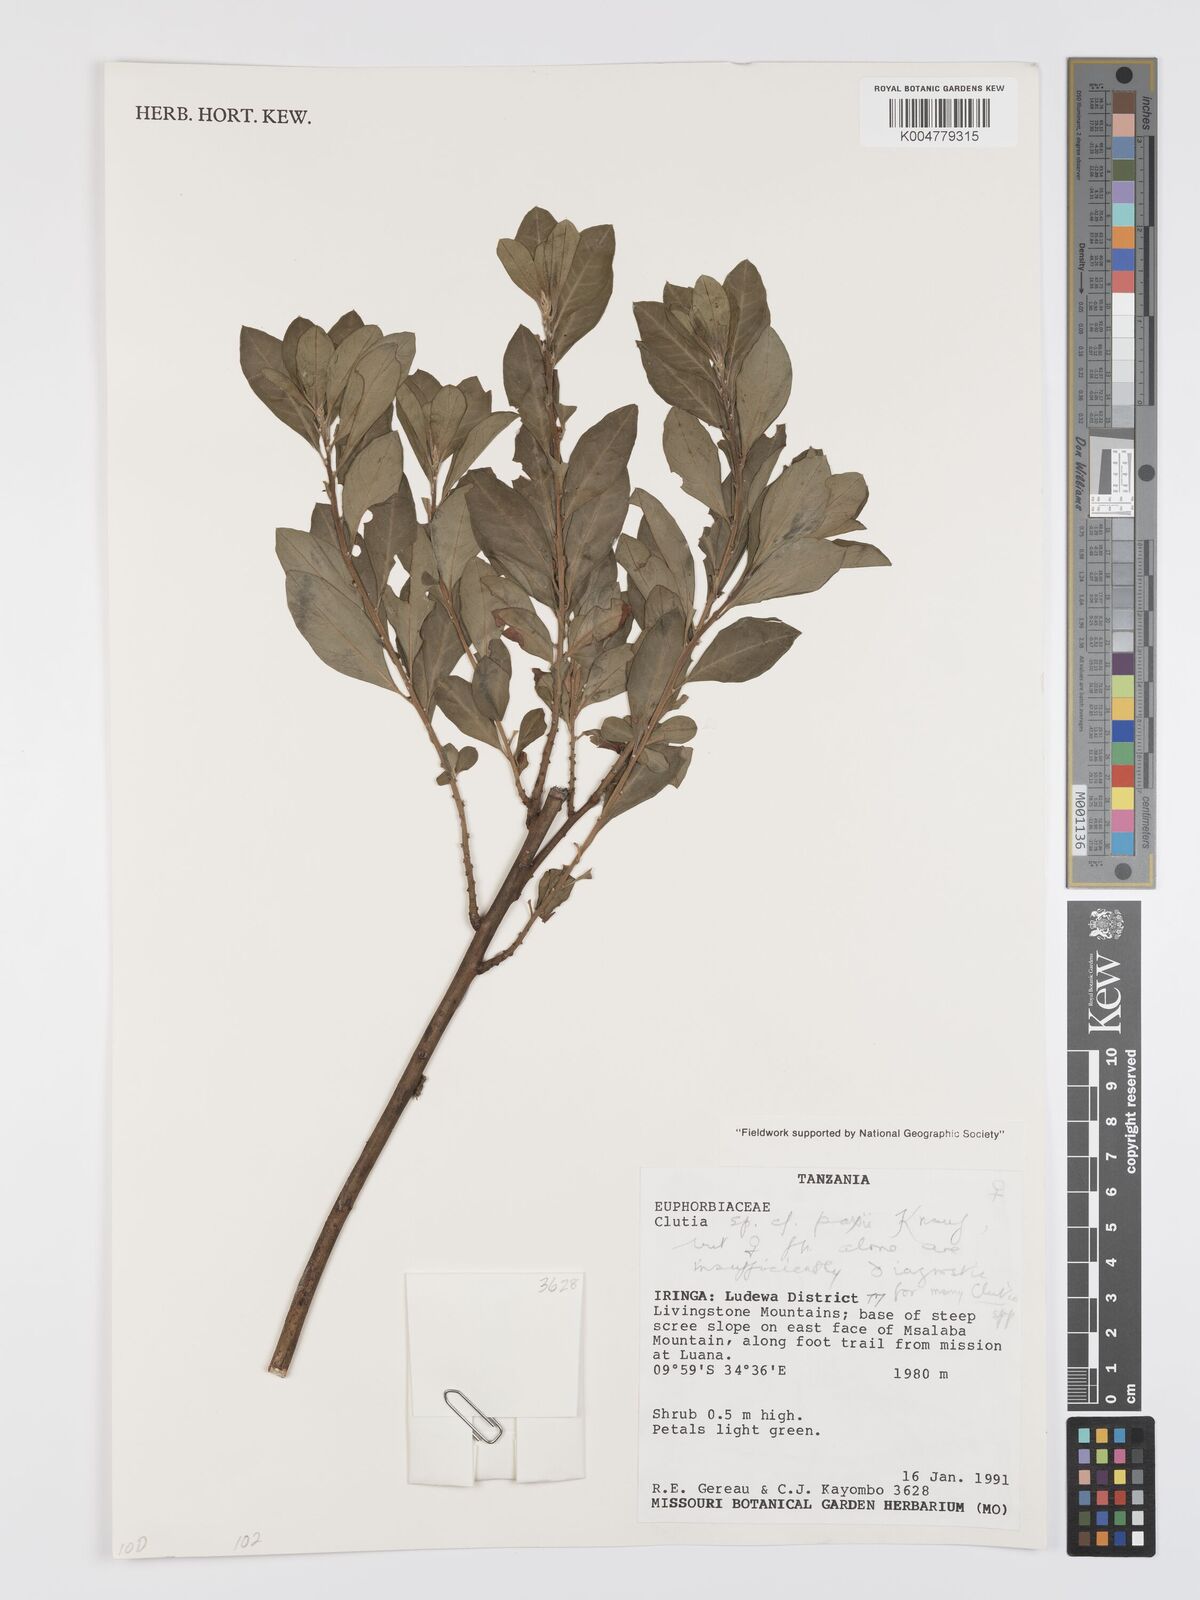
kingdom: Plantae
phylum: Tracheophyta
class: Magnoliopsida
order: Malpighiales
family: Peraceae
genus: Clutia
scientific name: Clutia paxii
